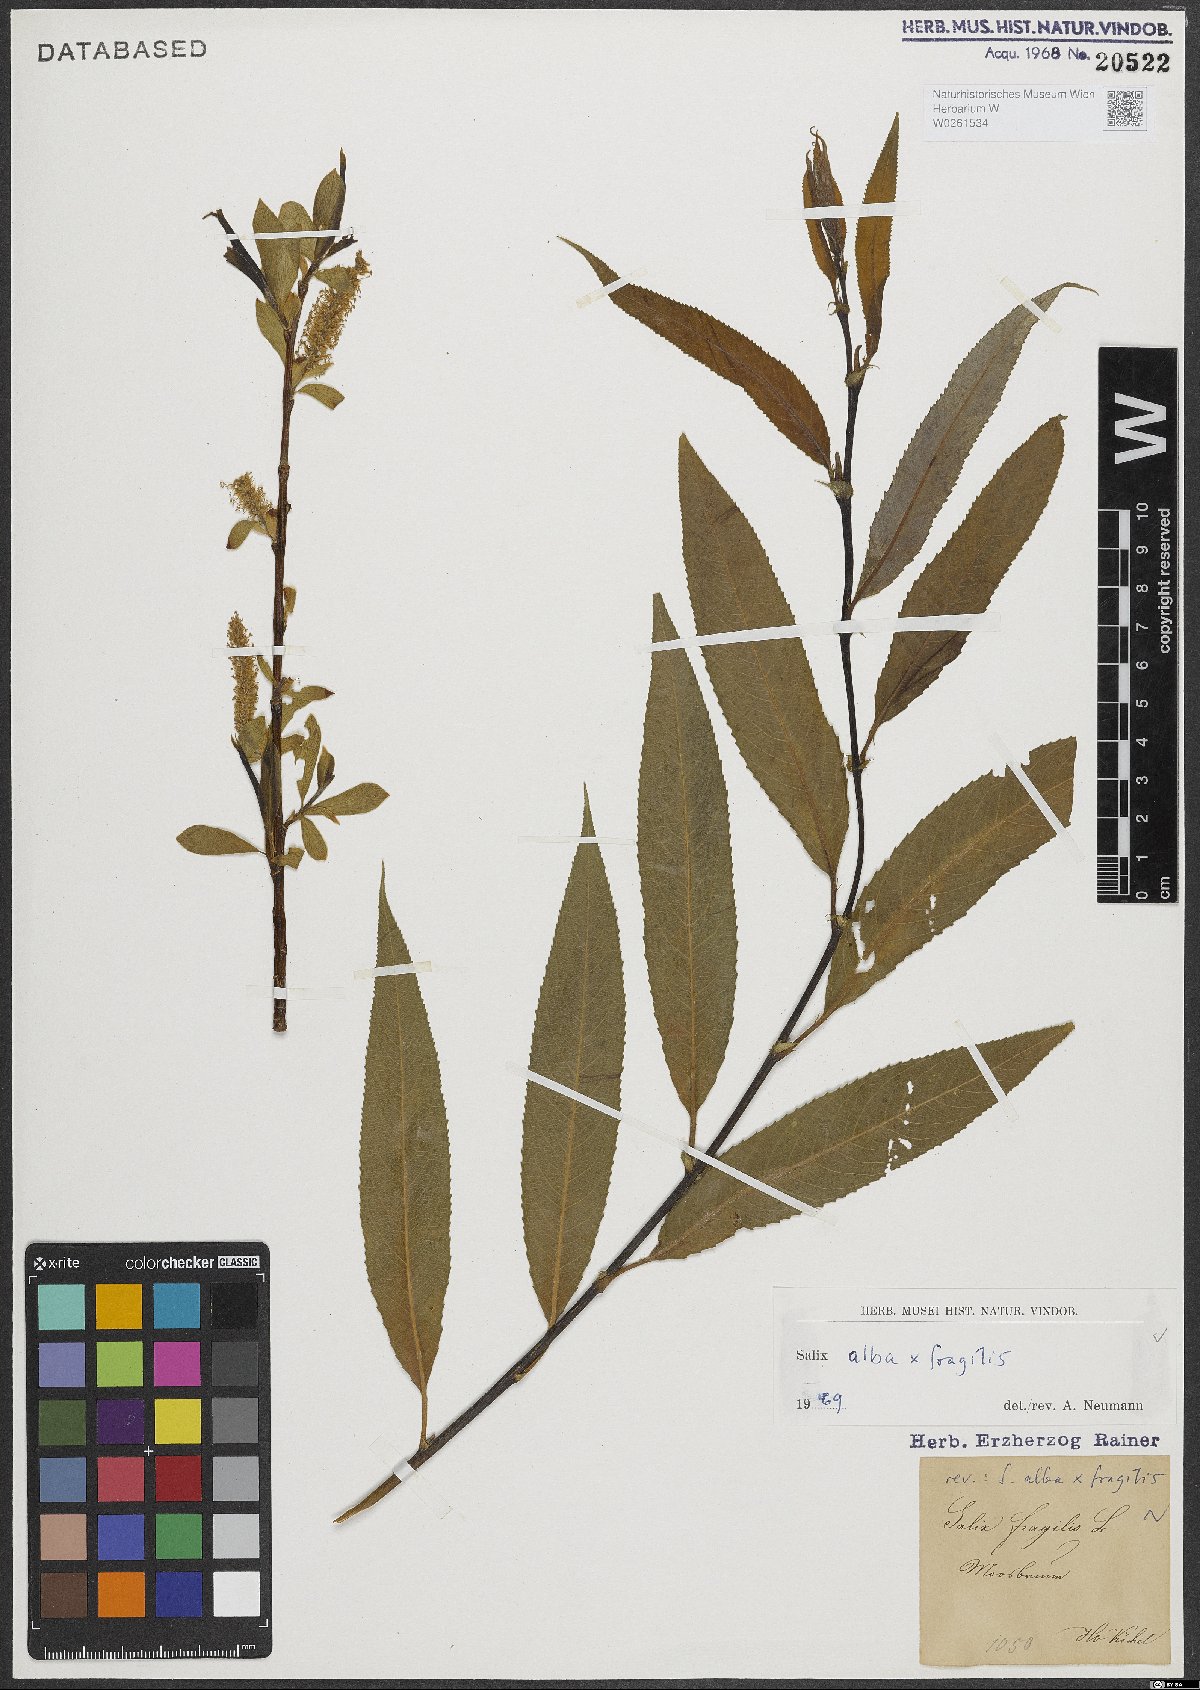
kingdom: Plantae
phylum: Tracheophyta
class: Magnoliopsida
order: Malpighiales
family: Salicaceae
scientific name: Salicaceae
